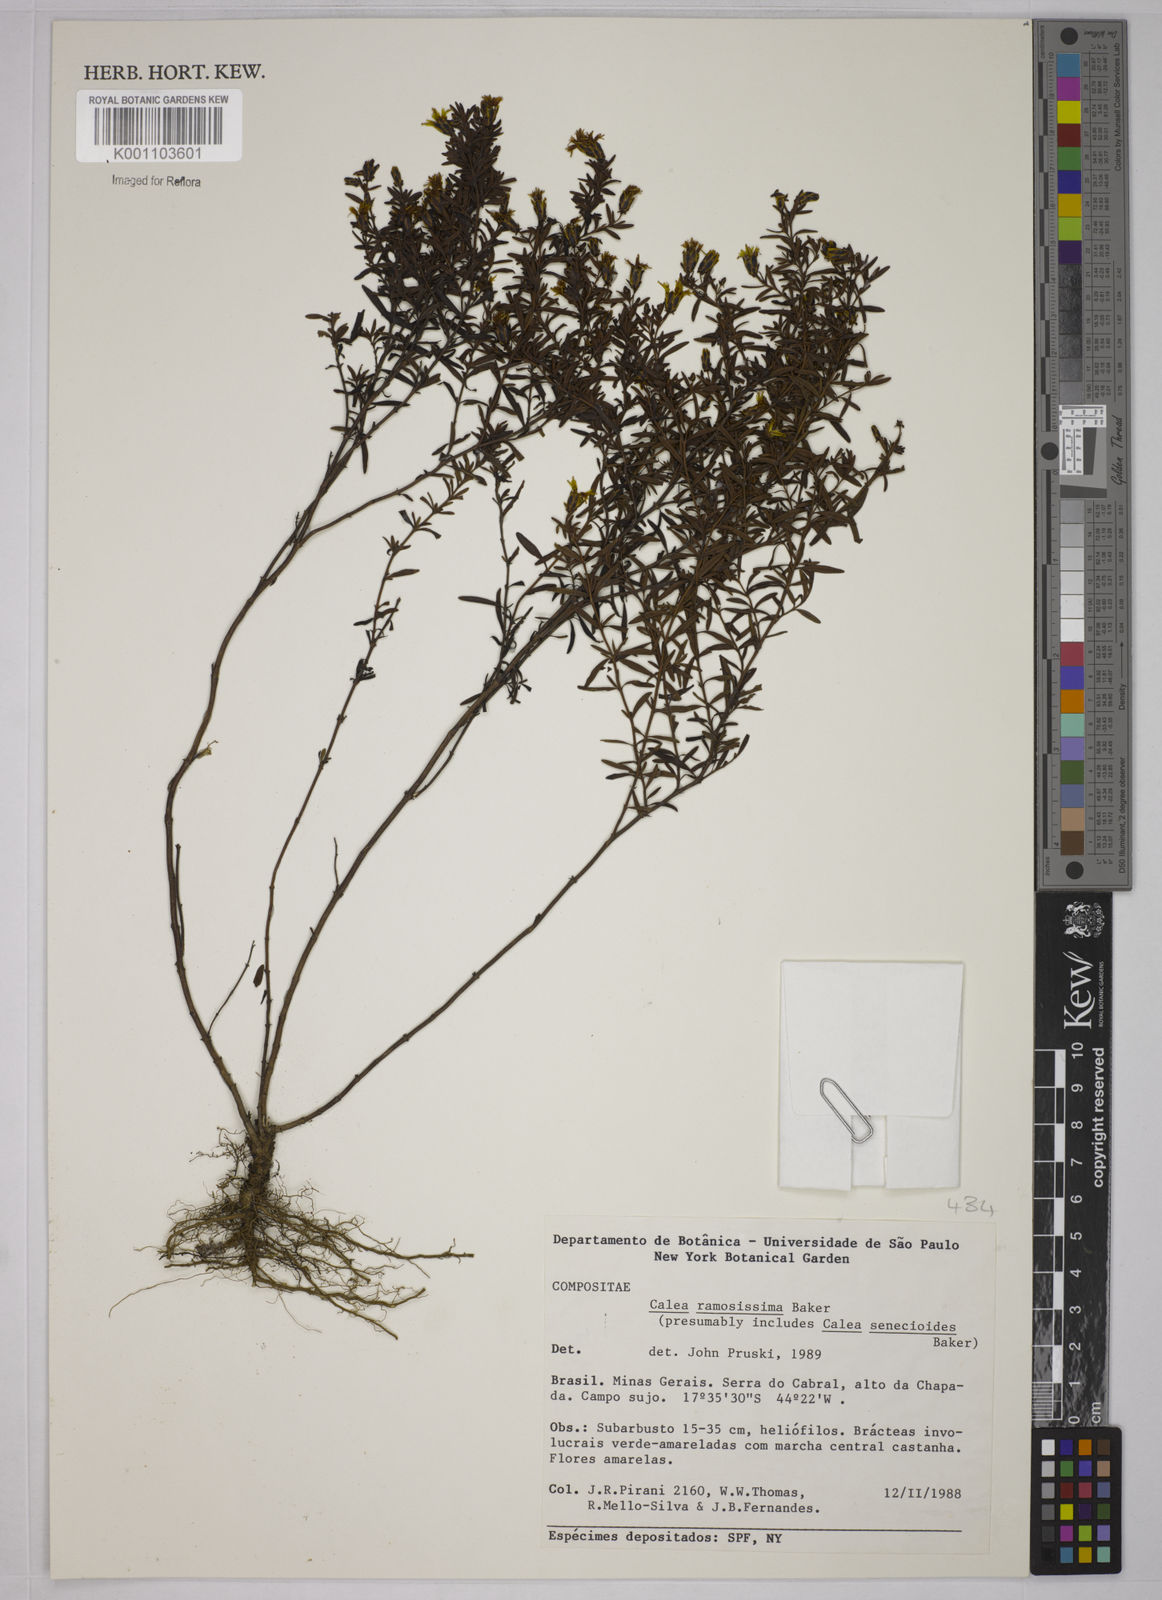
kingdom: Plantae
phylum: Tracheophyta
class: Magnoliopsida
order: Asterales
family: Asteraceae
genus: Calea
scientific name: Calea ramosissima
